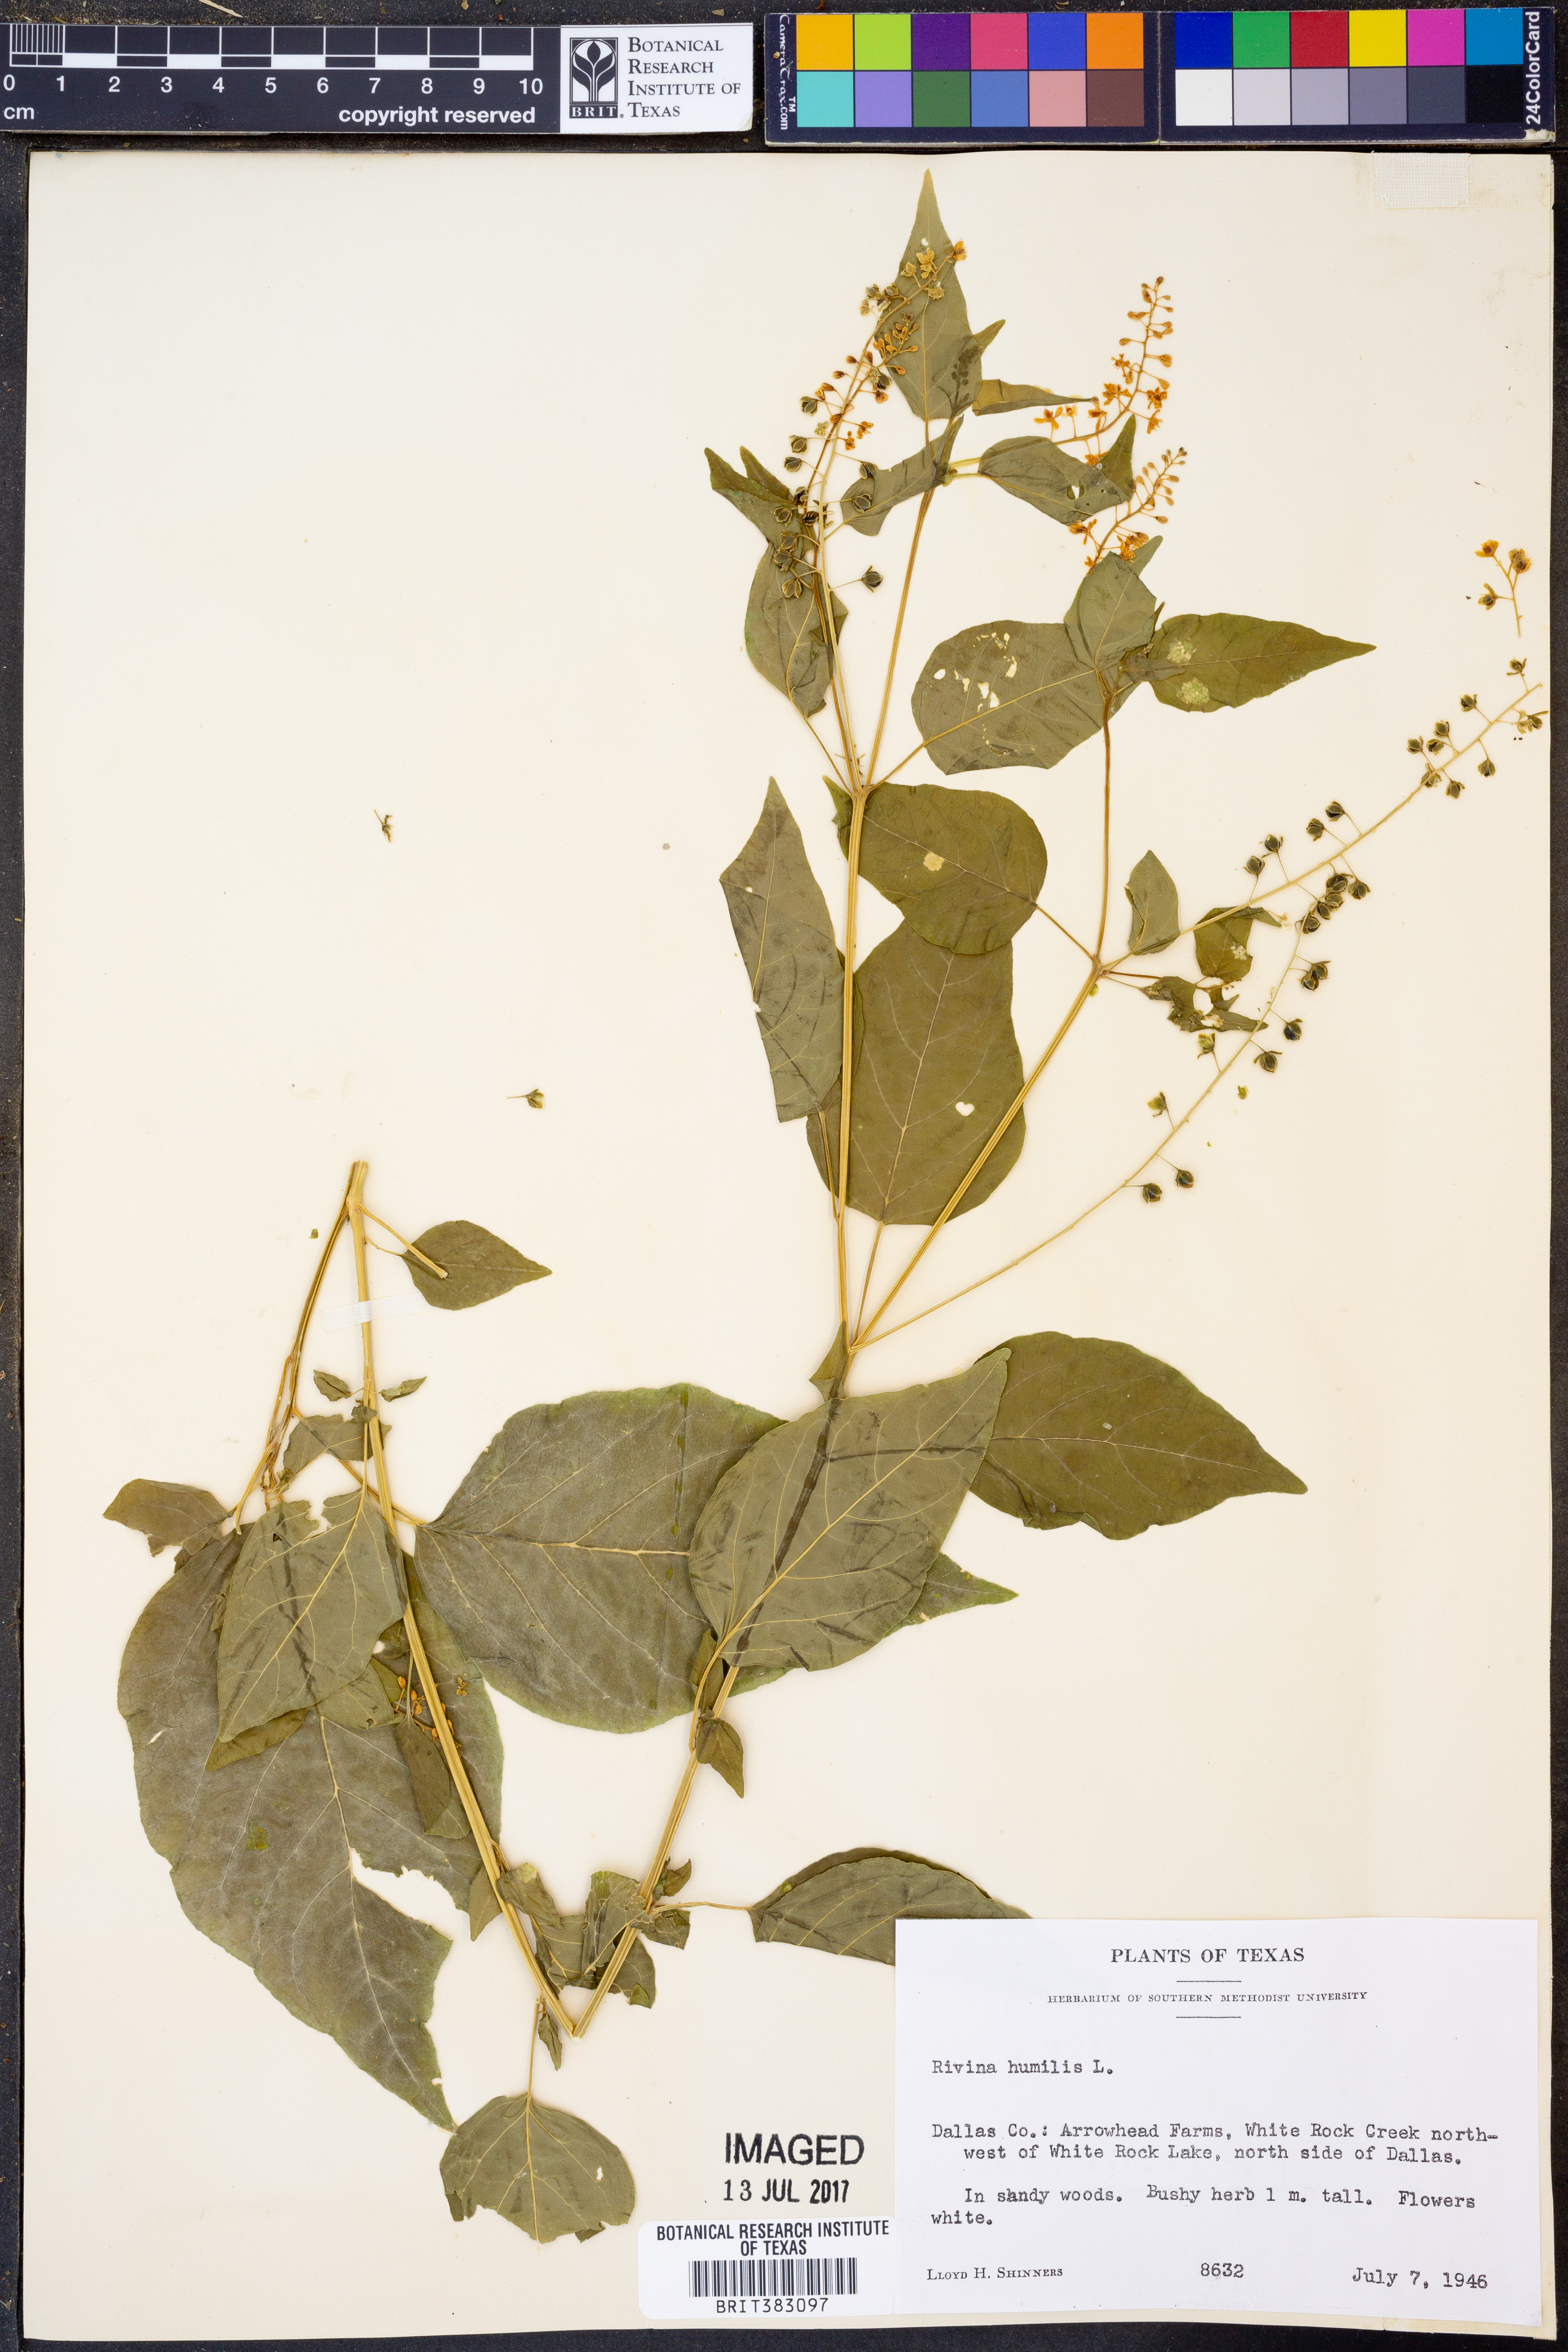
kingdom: Plantae
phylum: Tracheophyta
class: Magnoliopsida
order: Caryophyllales
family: Phytolaccaceae
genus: Rivina
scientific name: Rivina humilis
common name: Rougeplant
